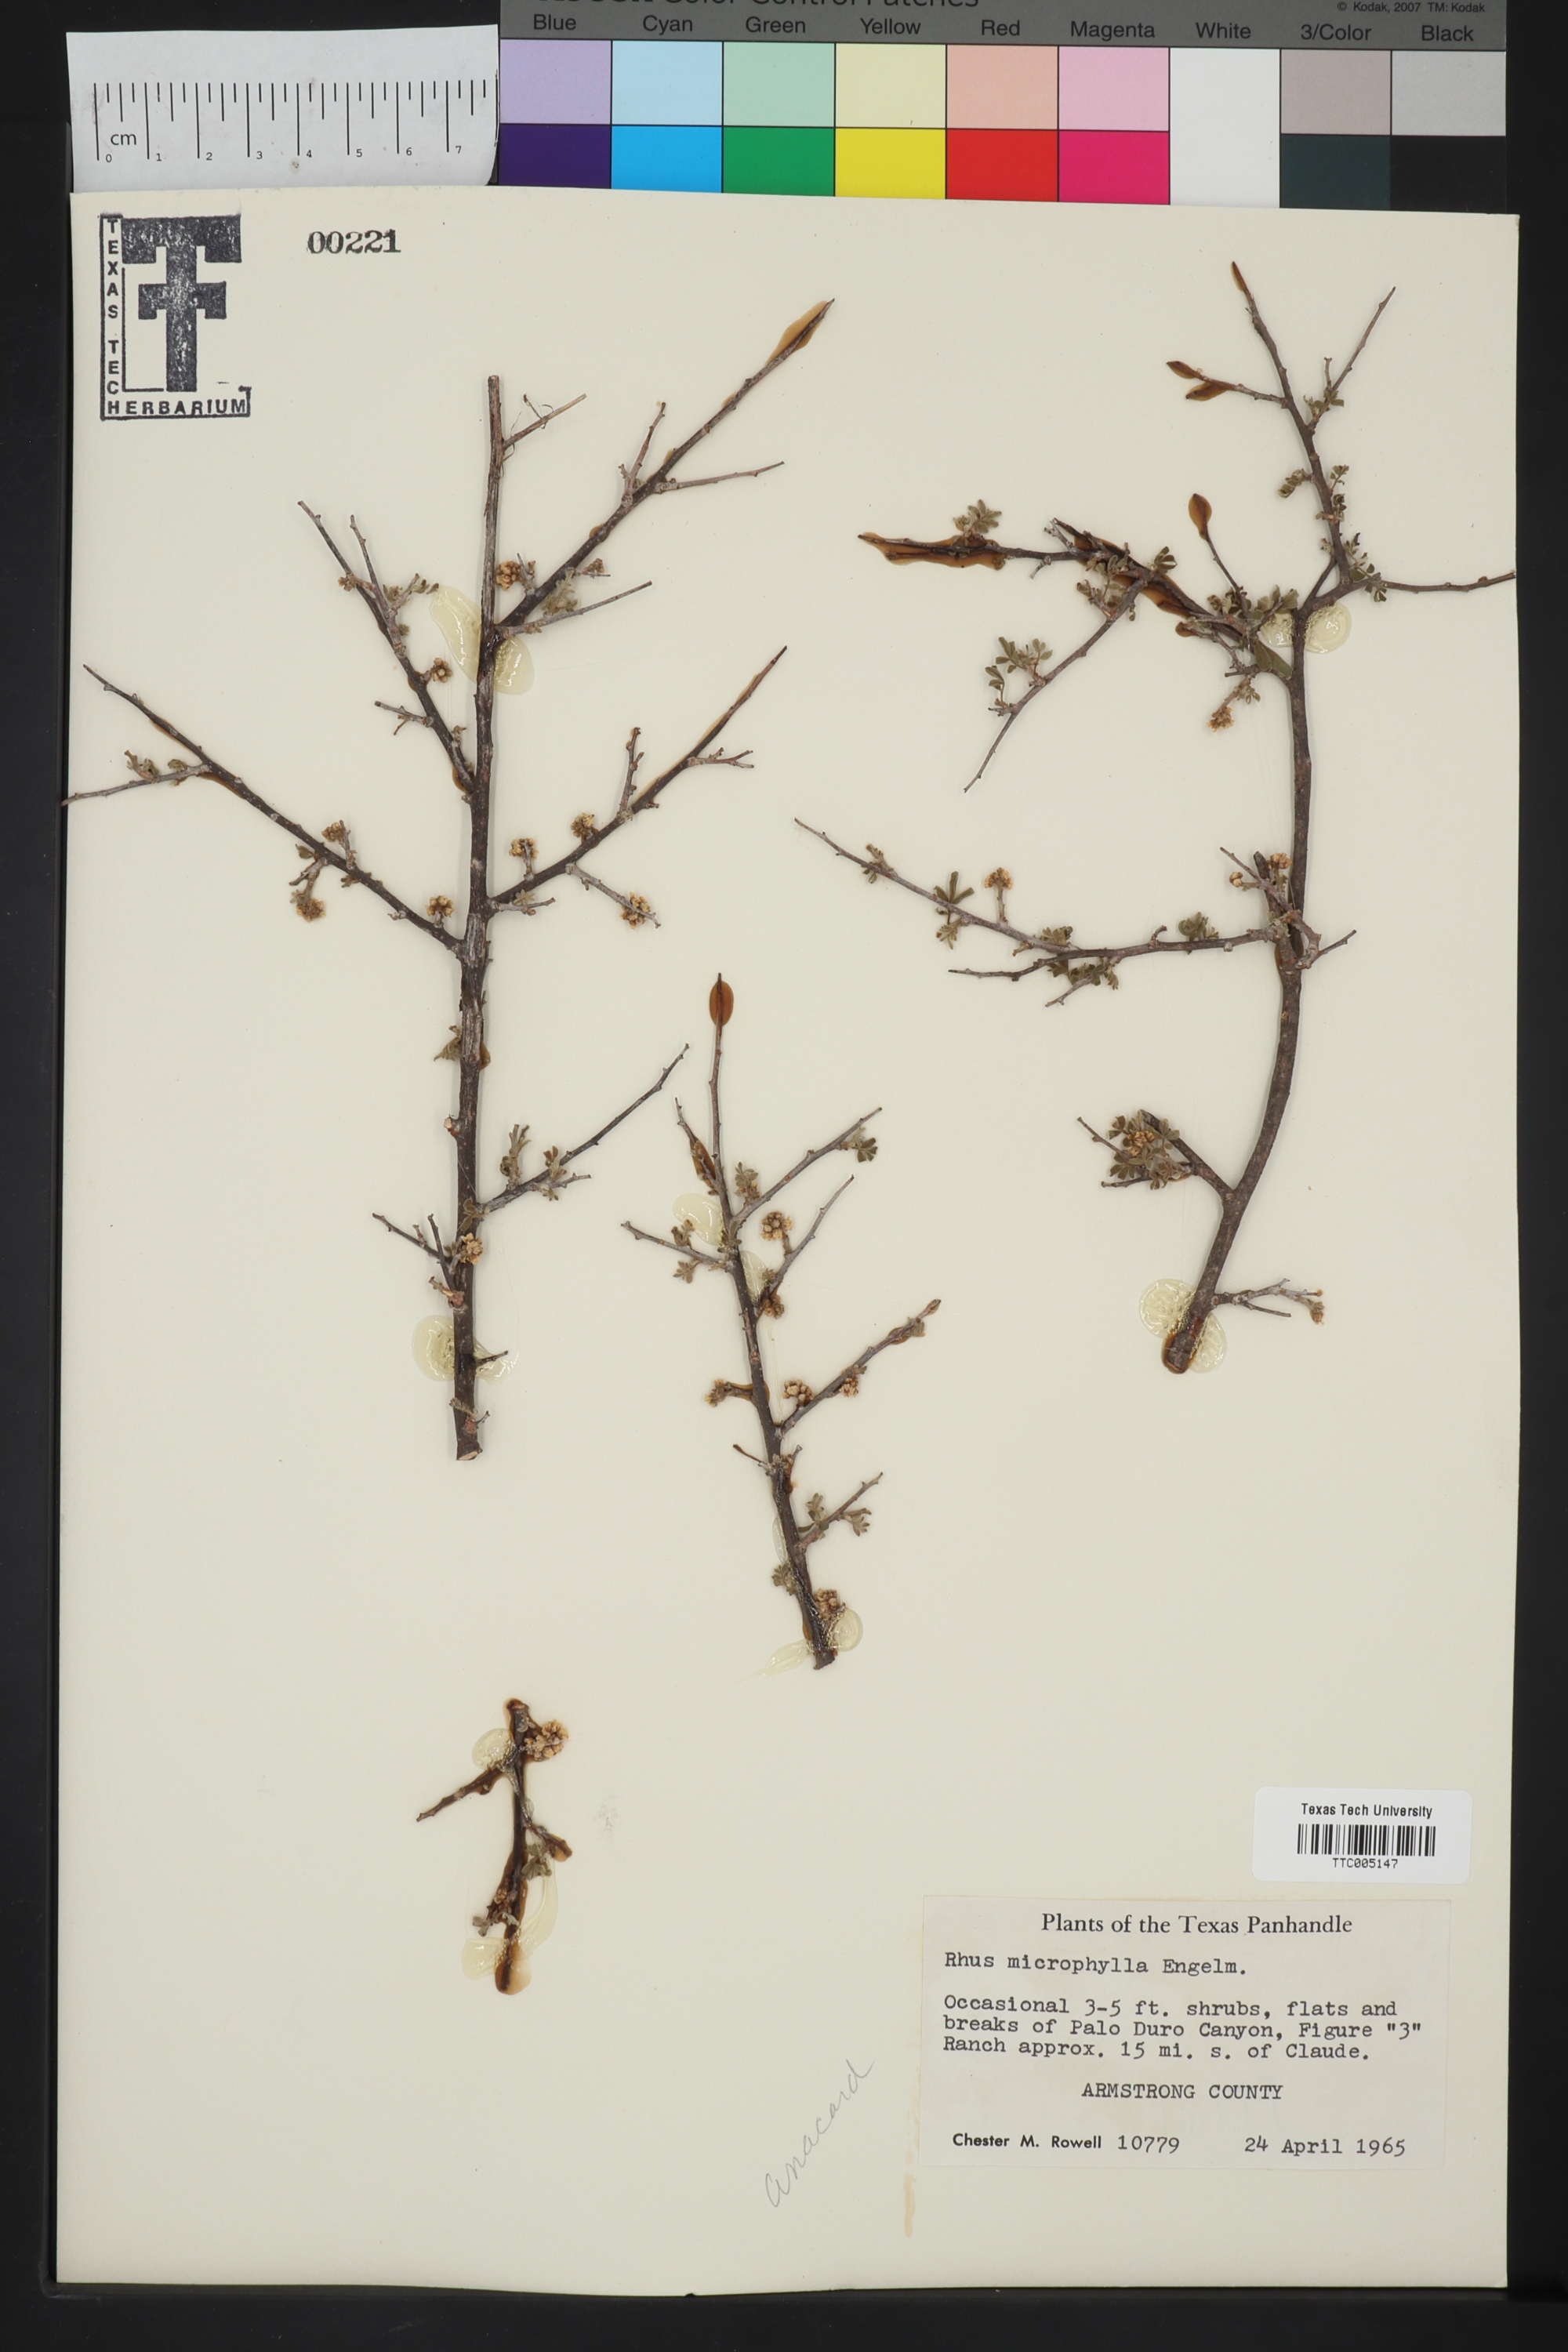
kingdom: Plantae
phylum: Tracheophyta
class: Magnoliopsida
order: Sapindales
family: Anacardiaceae
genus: Rhus
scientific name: Rhus microphylla
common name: Desert sumac
